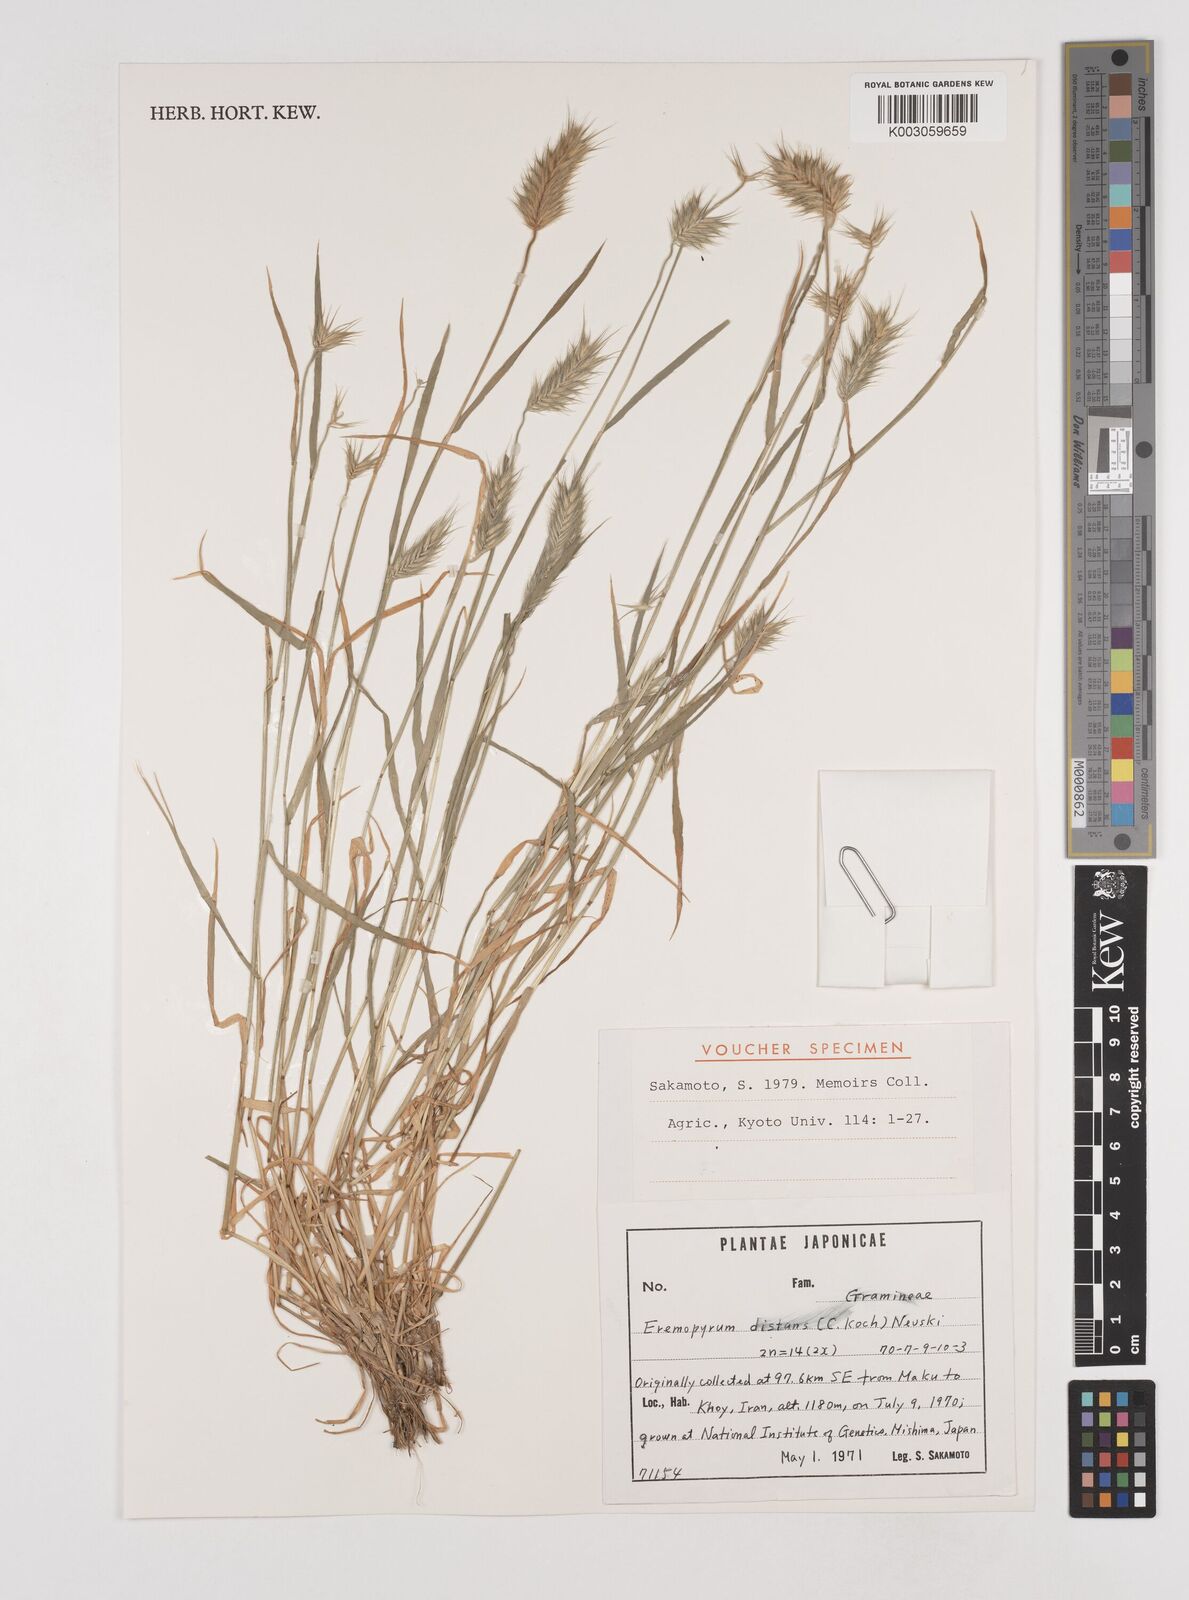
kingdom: Plantae
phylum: Tracheophyta
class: Liliopsida
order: Poales
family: Poaceae
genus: Eremopyrum
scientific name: Eremopyrum distans
